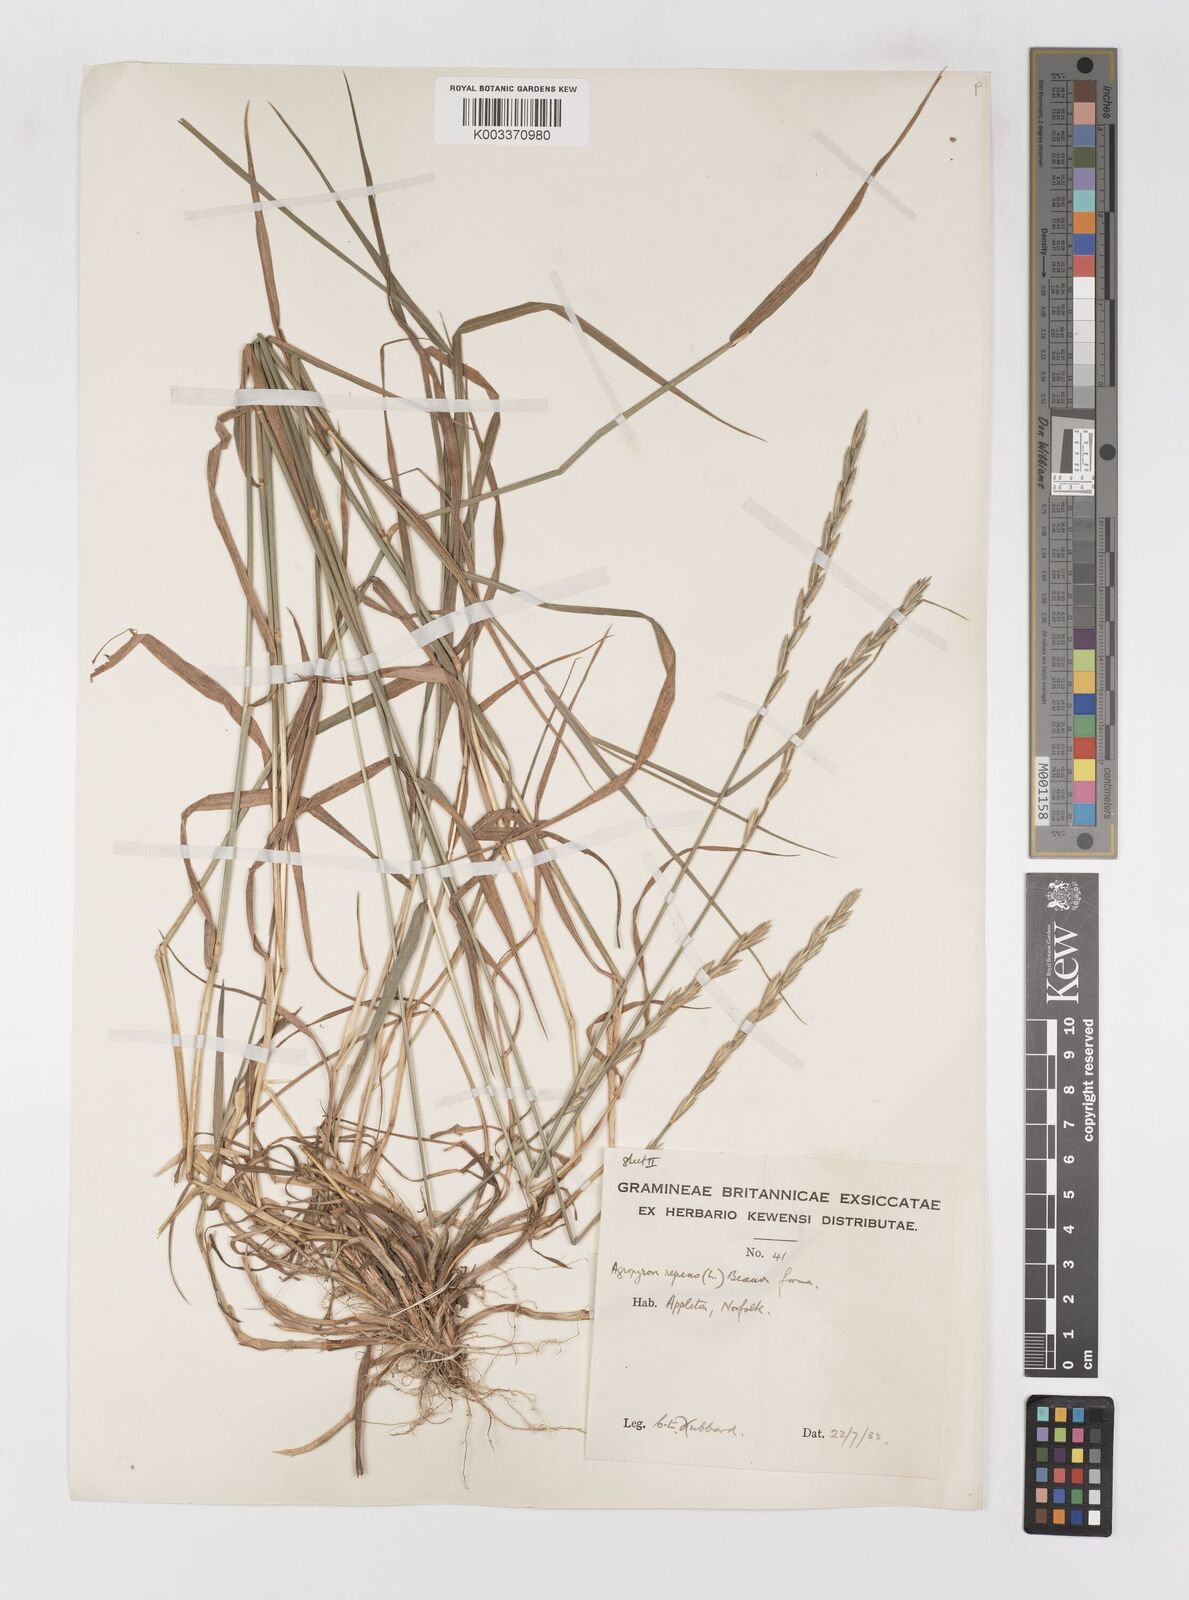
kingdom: Plantae
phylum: Tracheophyta
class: Liliopsida
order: Poales
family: Poaceae
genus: Elymus
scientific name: Elymus repens
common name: Quackgrass
